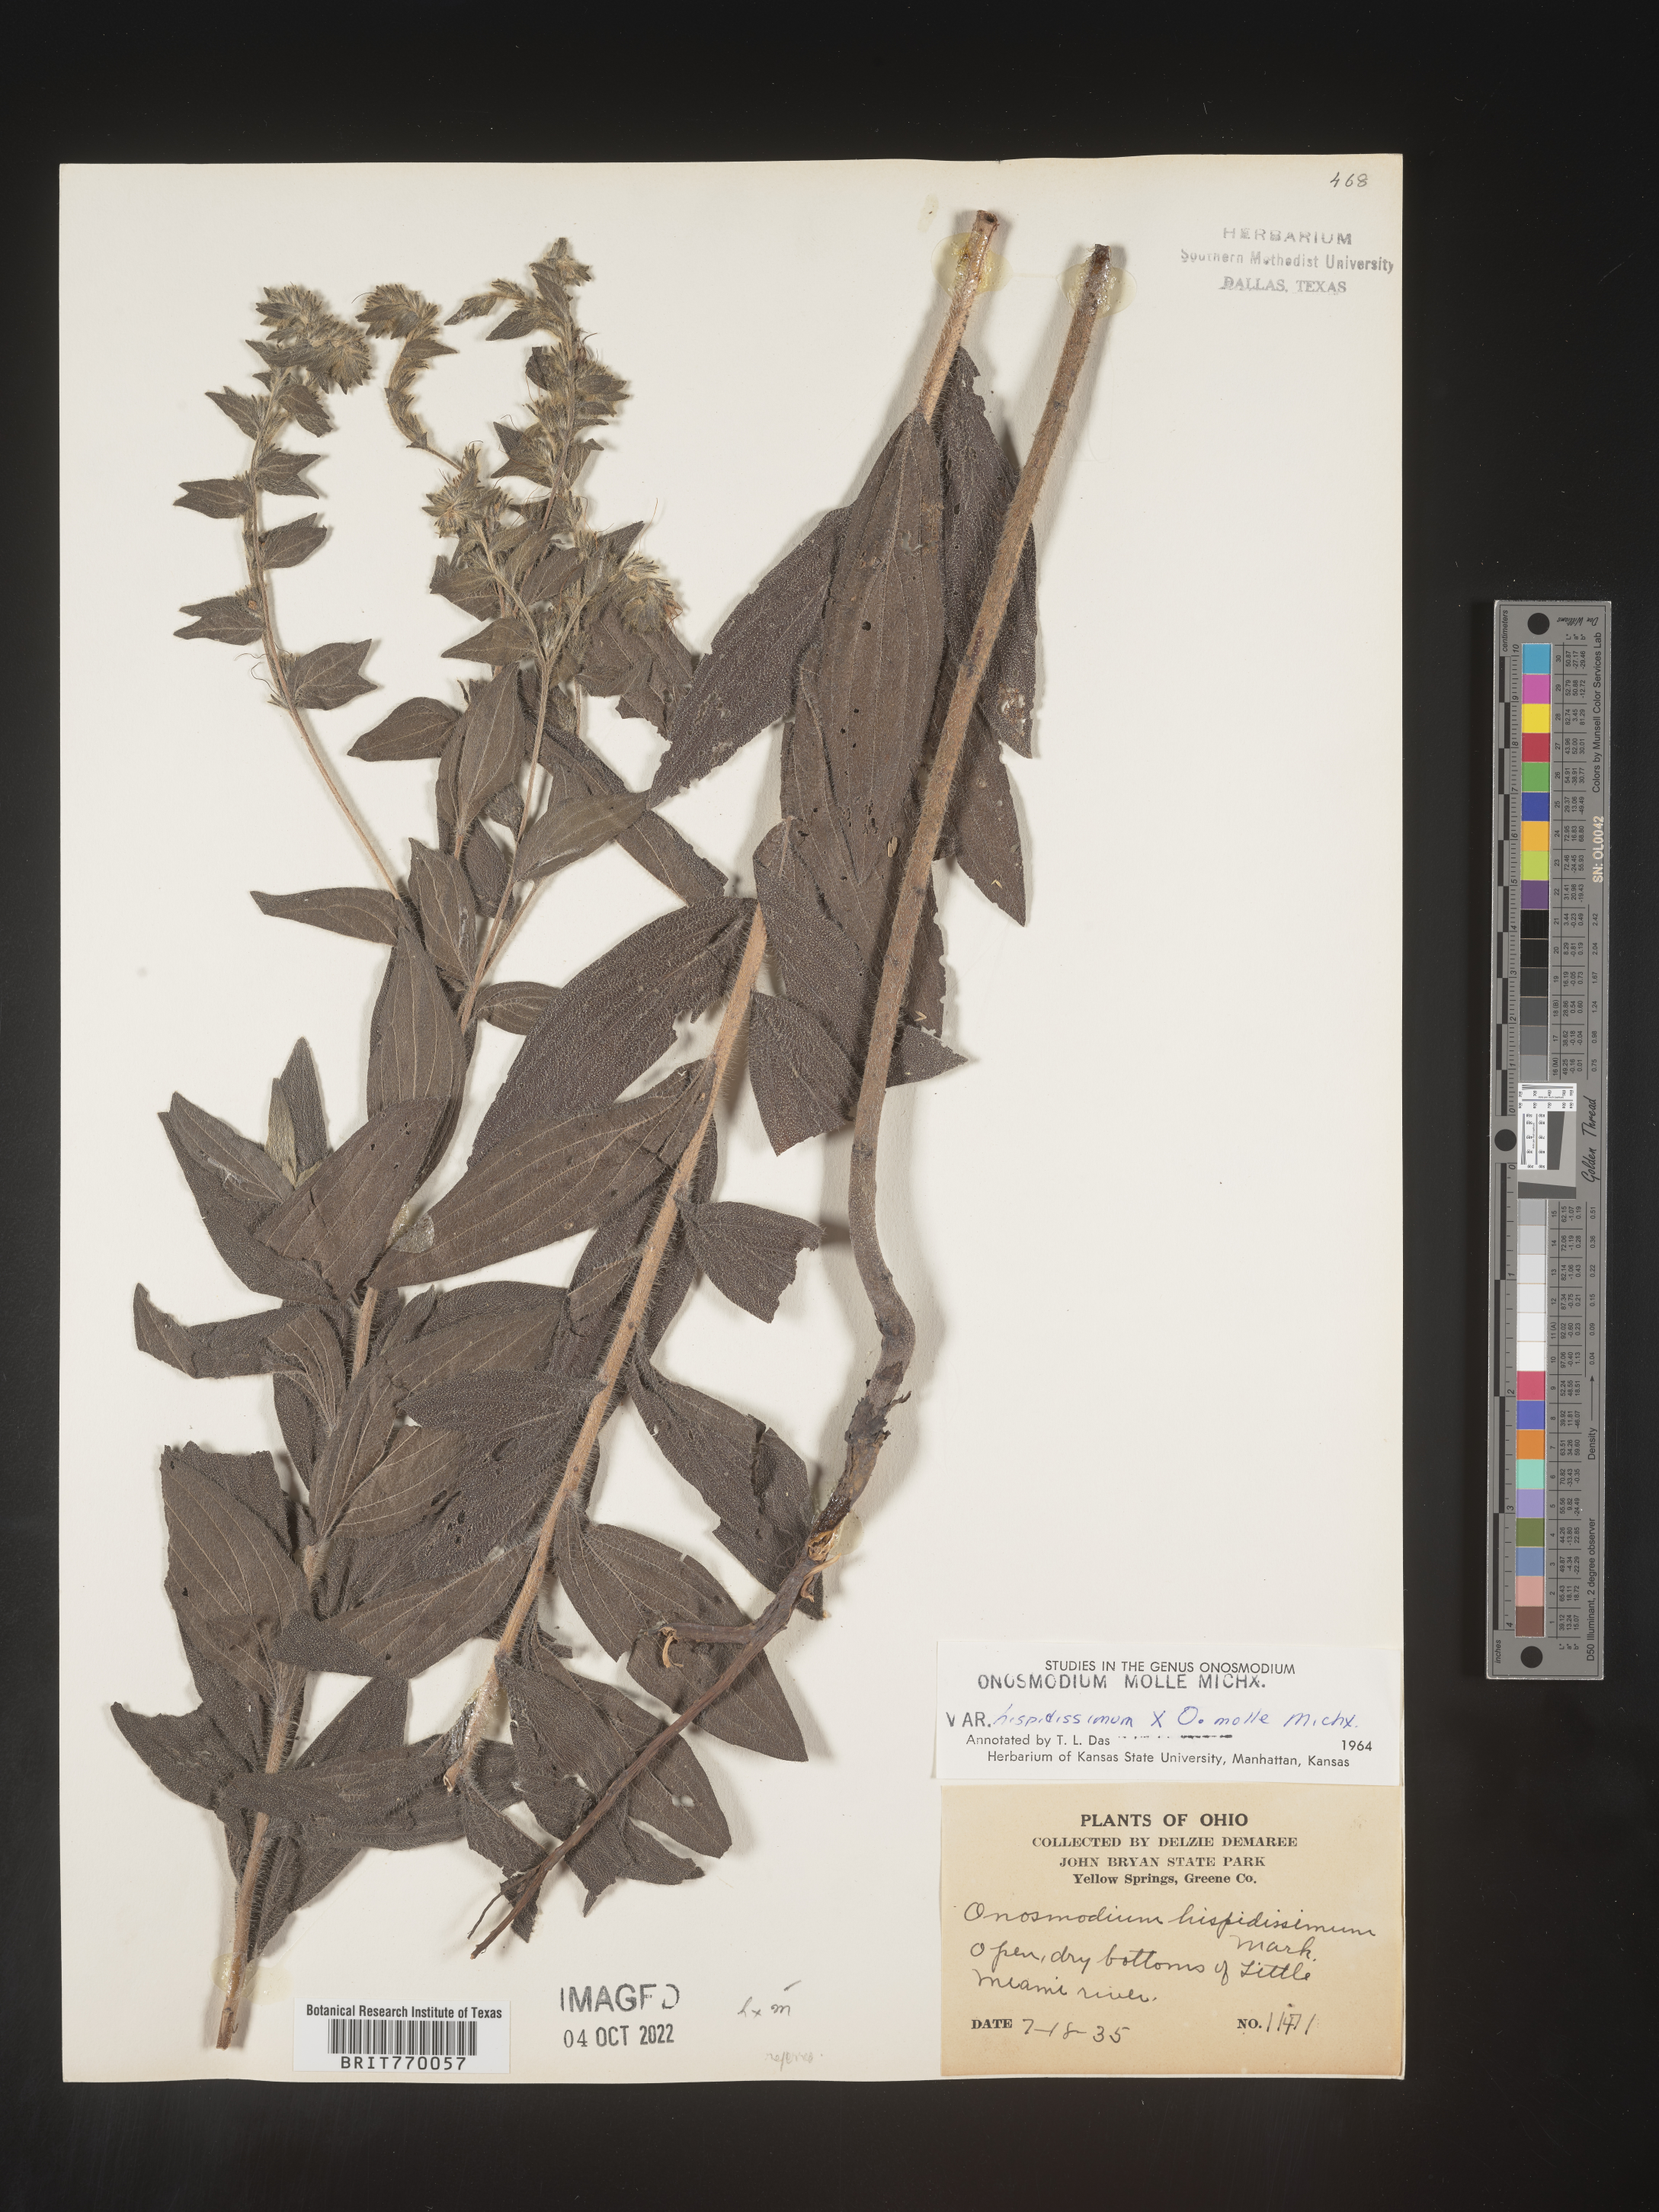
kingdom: Plantae
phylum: Tracheophyta
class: Magnoliopsida
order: Boraginales
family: Boraginaceae
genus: Lithospermum
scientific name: Lithospermum parviflorum
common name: Hairy false gromwell
